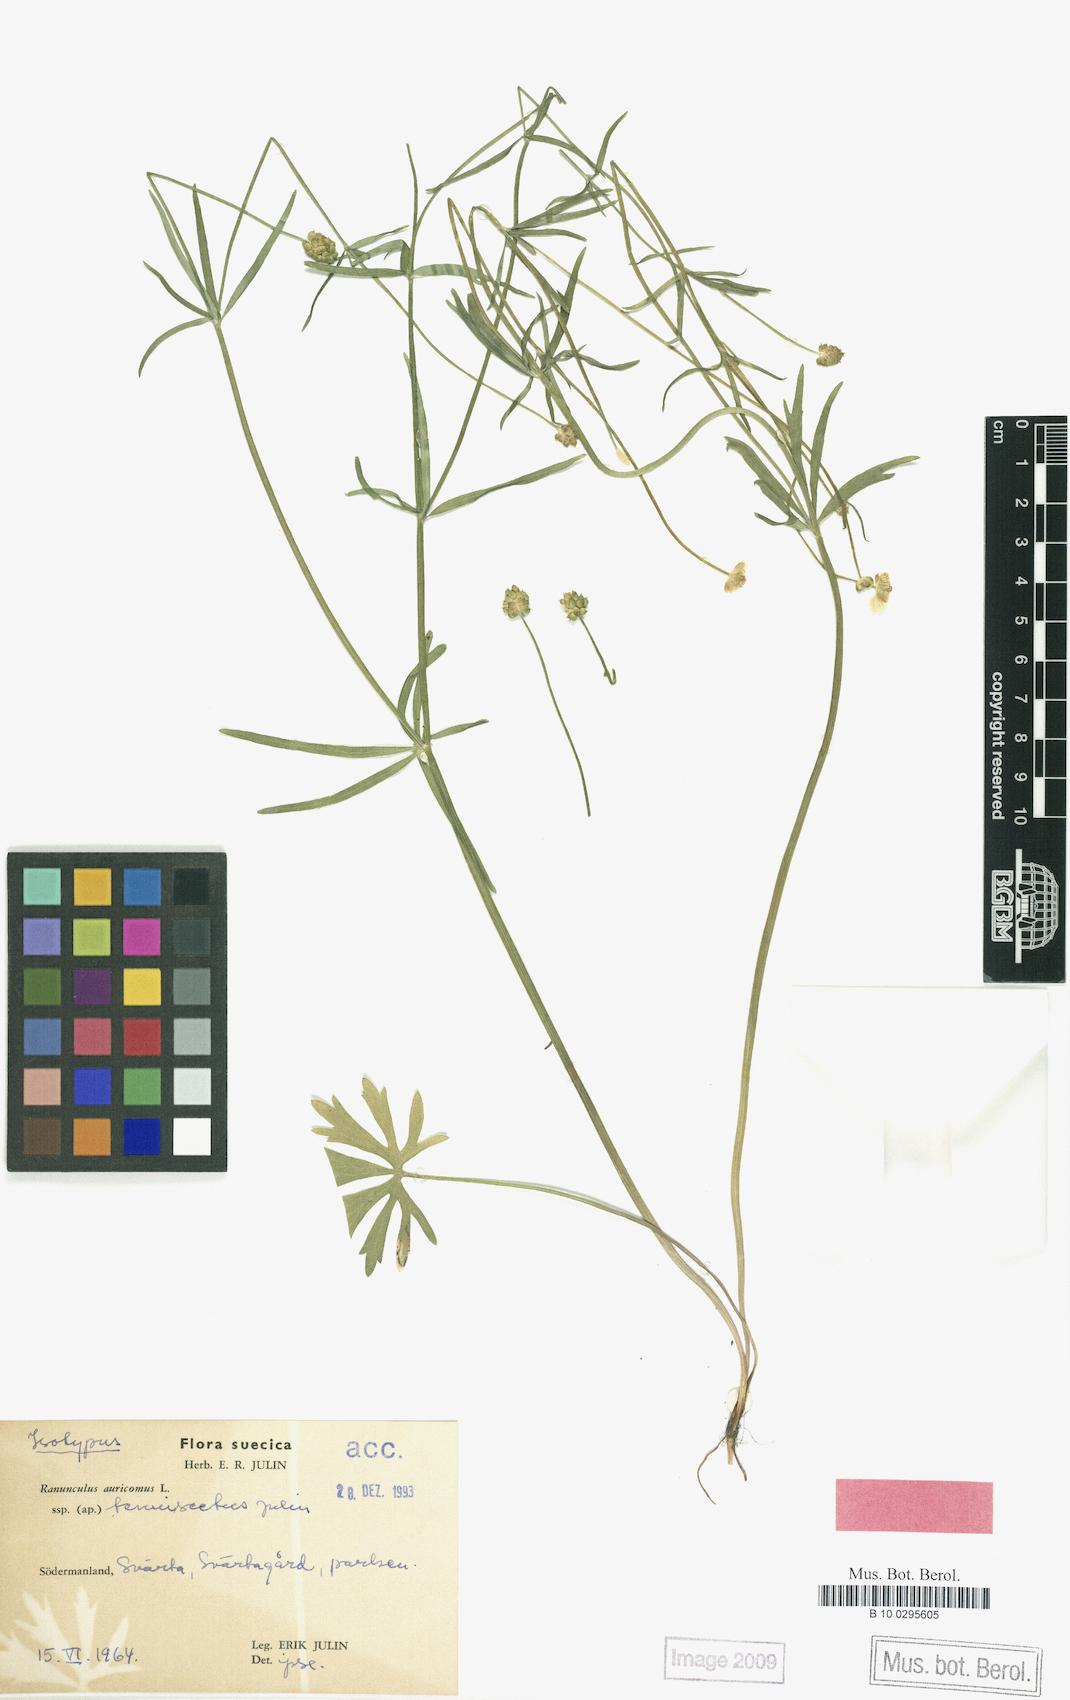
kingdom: Plantae
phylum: Tracheophyta
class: Magnoliopsida
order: Ranunculales
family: Ranunculaceae
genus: Ranunculus
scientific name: Ranunculus tenuisectus
